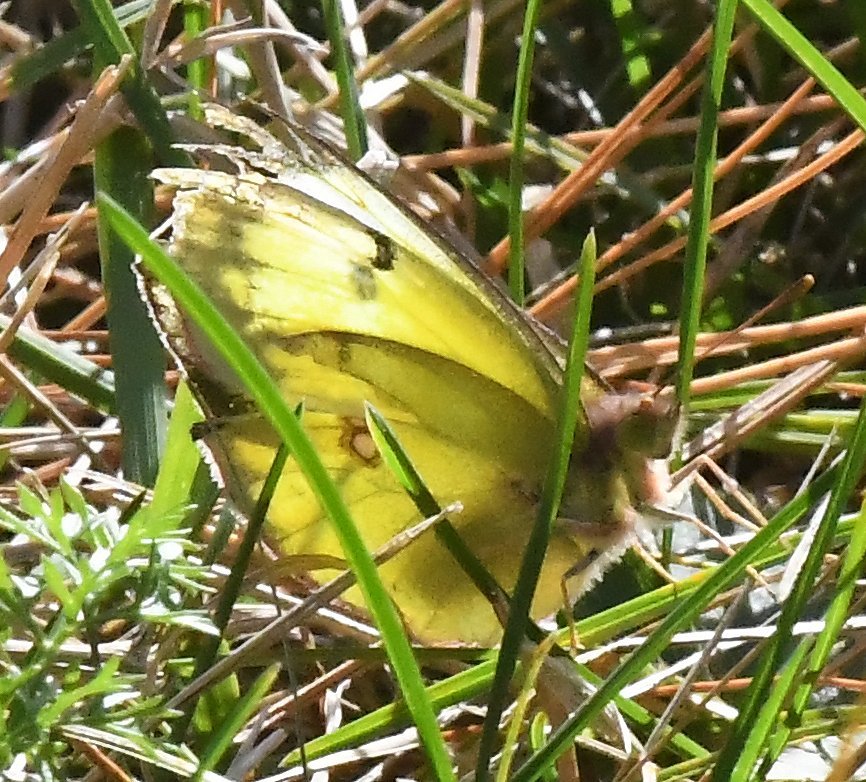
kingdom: Animalia
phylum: Arthropoda
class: Insecta
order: Lepidoptera
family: Pieridae
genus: Colias
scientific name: Colias philodice
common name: Clouded Sulphur
